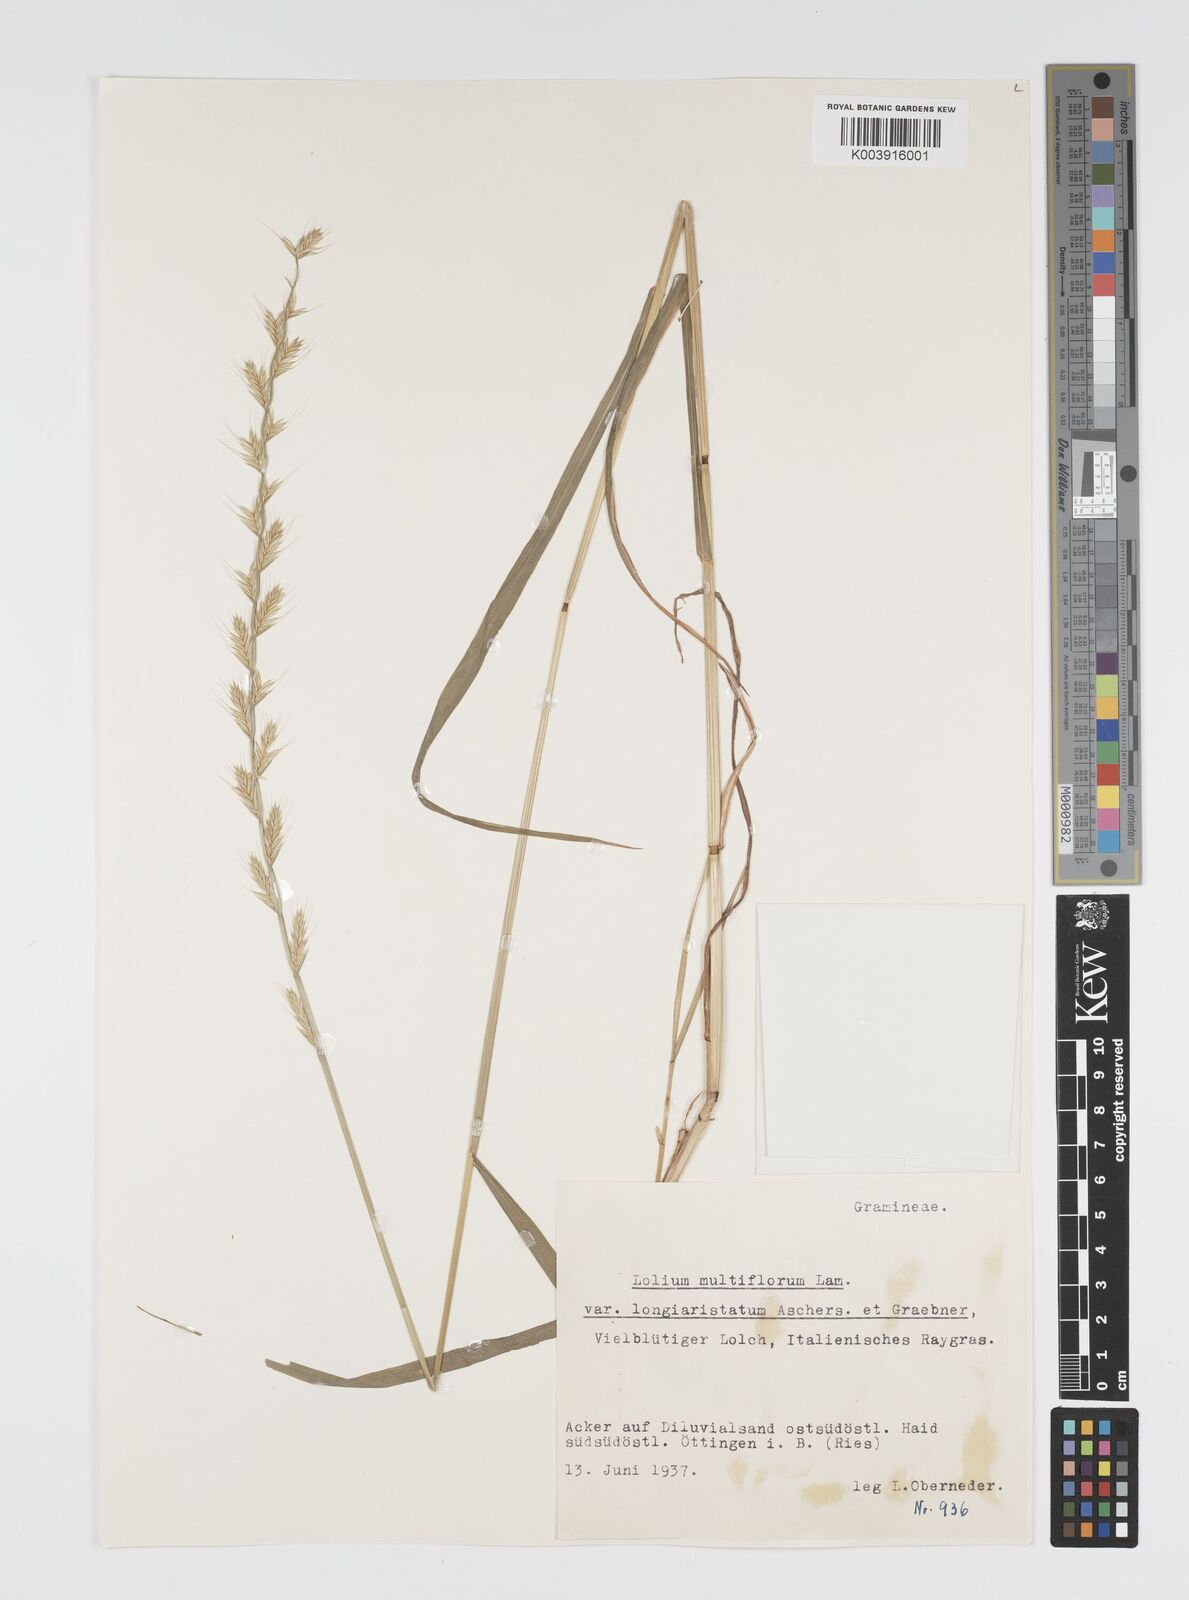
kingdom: Plantae
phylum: Tracheophyta
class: Liliopsida
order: Poales
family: Poaceae
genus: Lolium
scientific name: Lolium multiflorum
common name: Annual ryegrass
